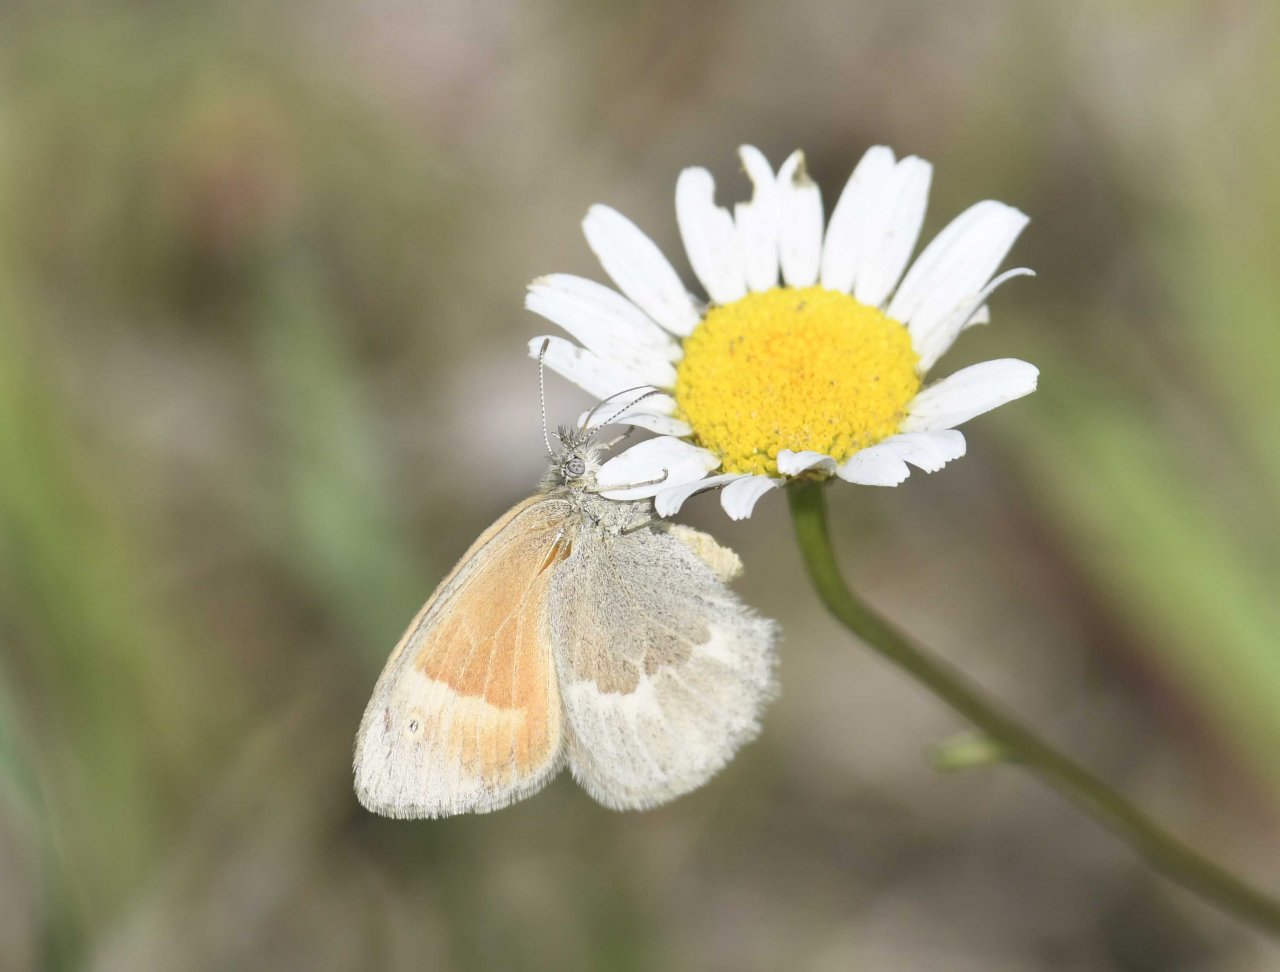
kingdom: Animalia
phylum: Arthropoda
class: Insecta
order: Lepidoptera
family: Nymphalidae
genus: Coenonympha
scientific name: Coenonympha tullia
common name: Large Heath
